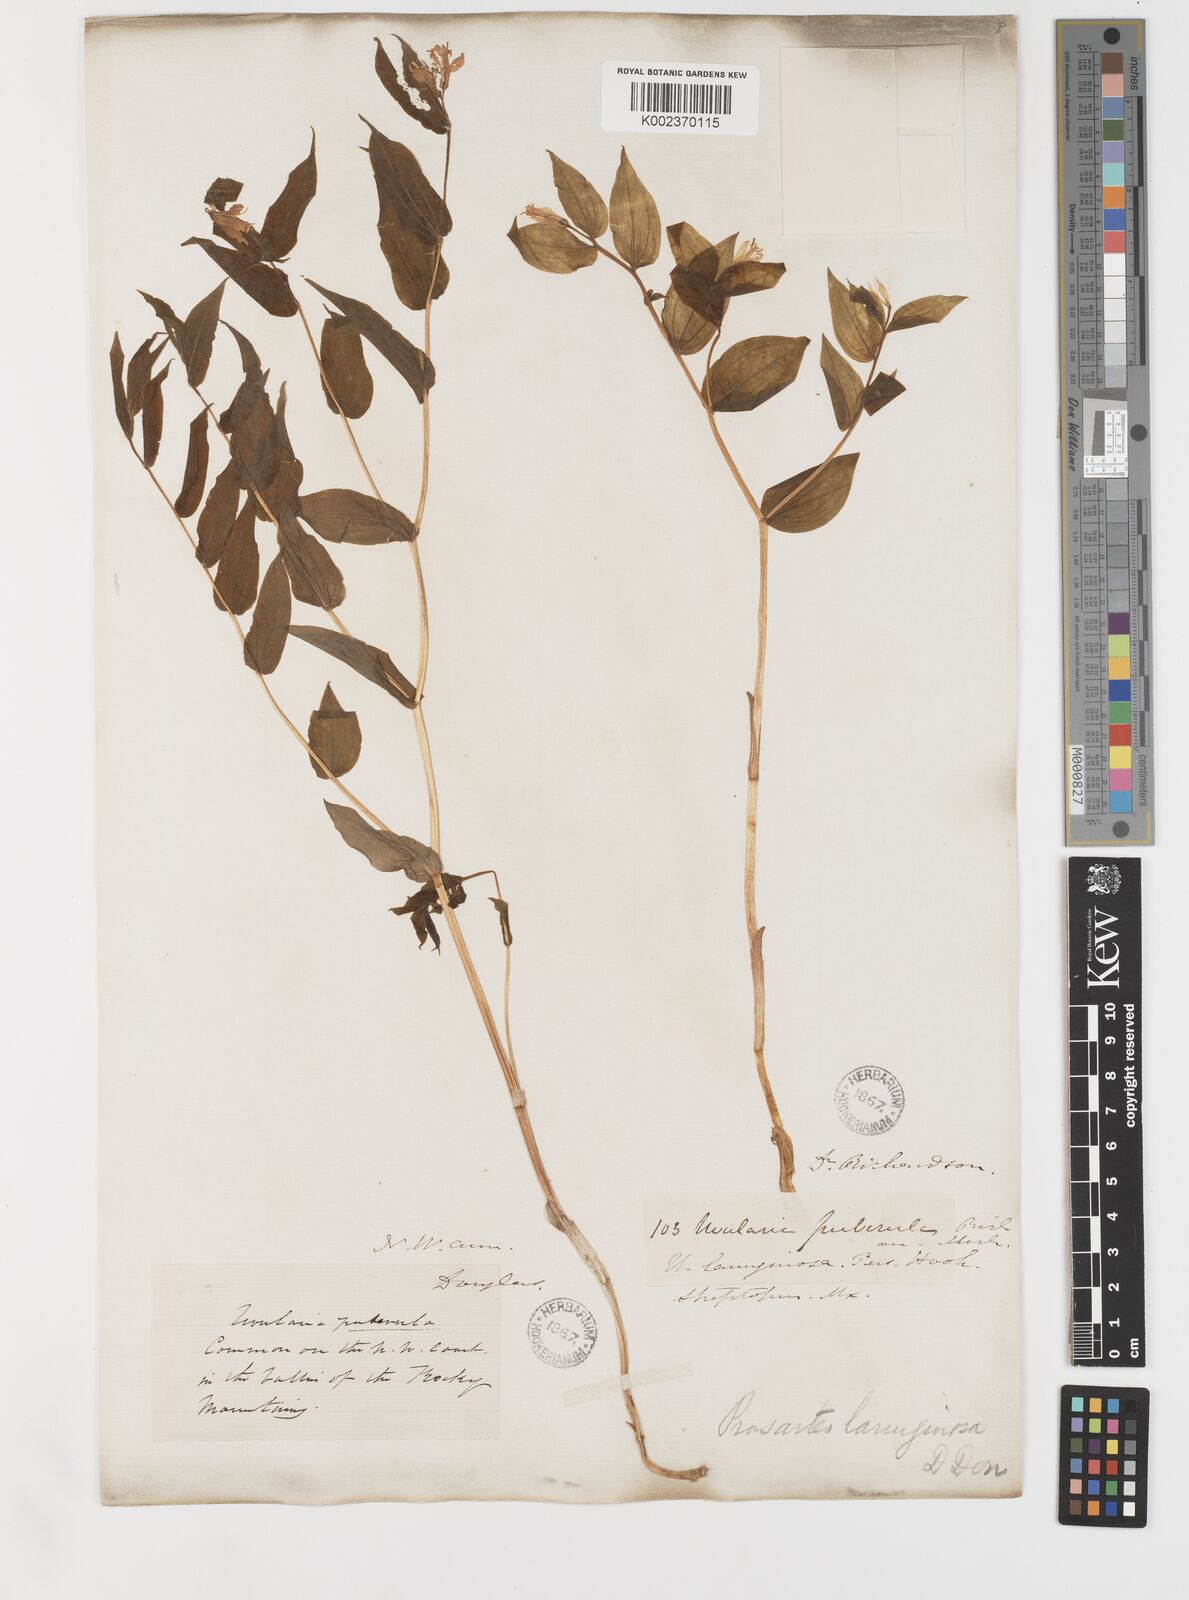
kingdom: Plantae
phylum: Tracheophyta
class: Liliopsida
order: Liliales
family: Liliaceae
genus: Prosartes
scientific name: Prosartes hookeri
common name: Fairy-bells
